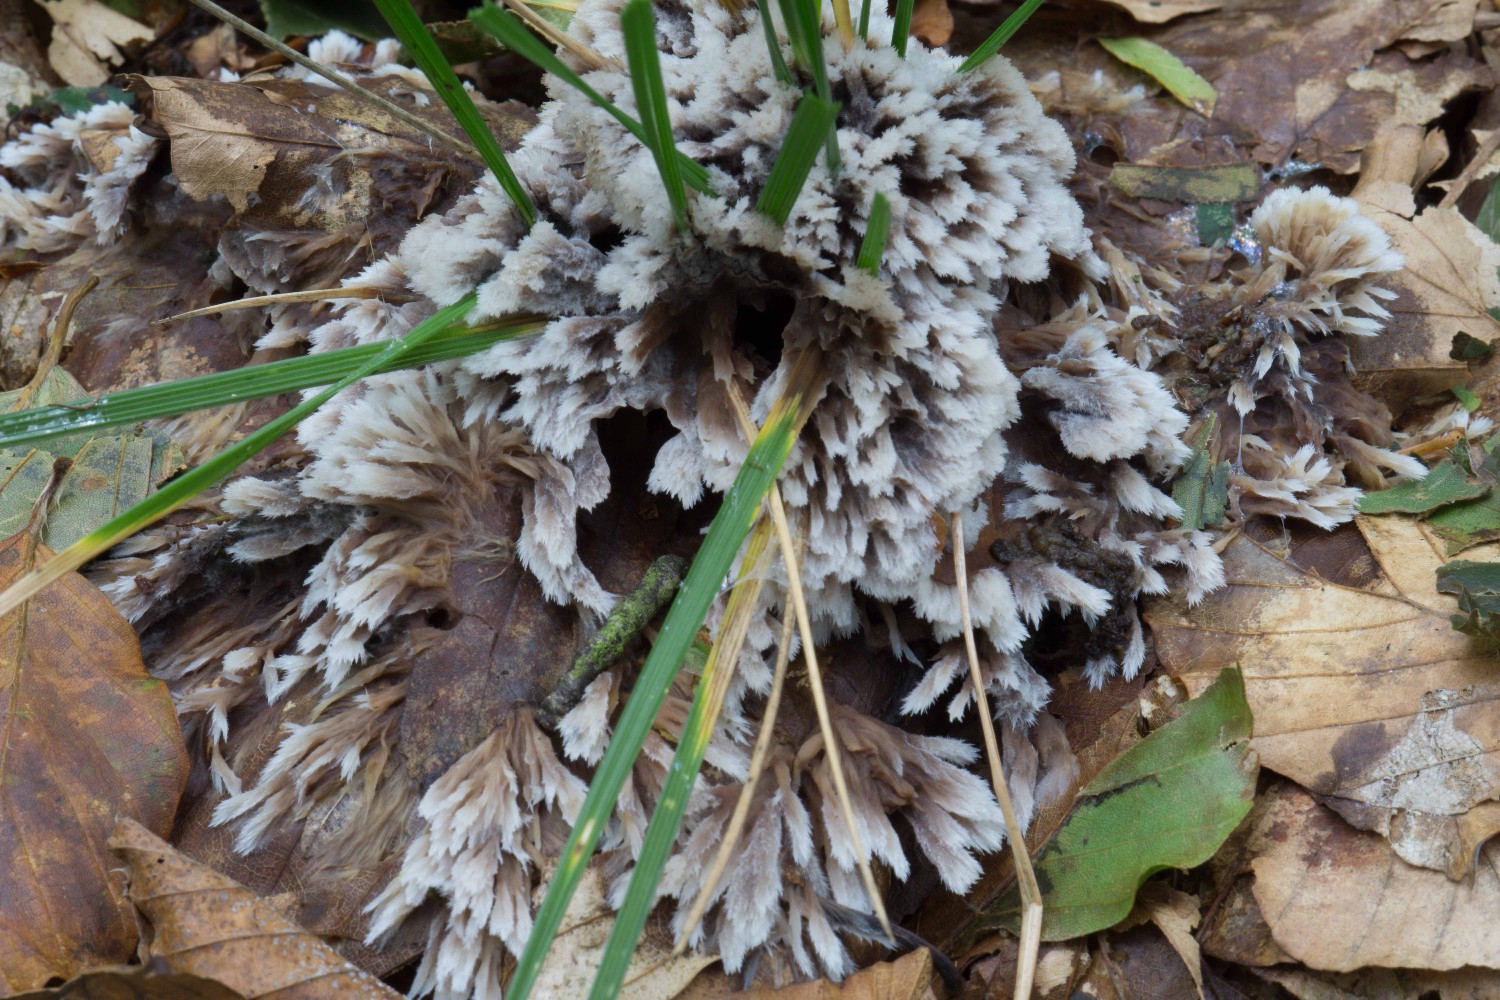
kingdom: Fungi
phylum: Basidiomycota
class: Agaricomycetes
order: Thelephorales
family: Thelephoraceae
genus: Thelephora
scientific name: Thelephora penicillata
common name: fladtrådt frynsesvamp
